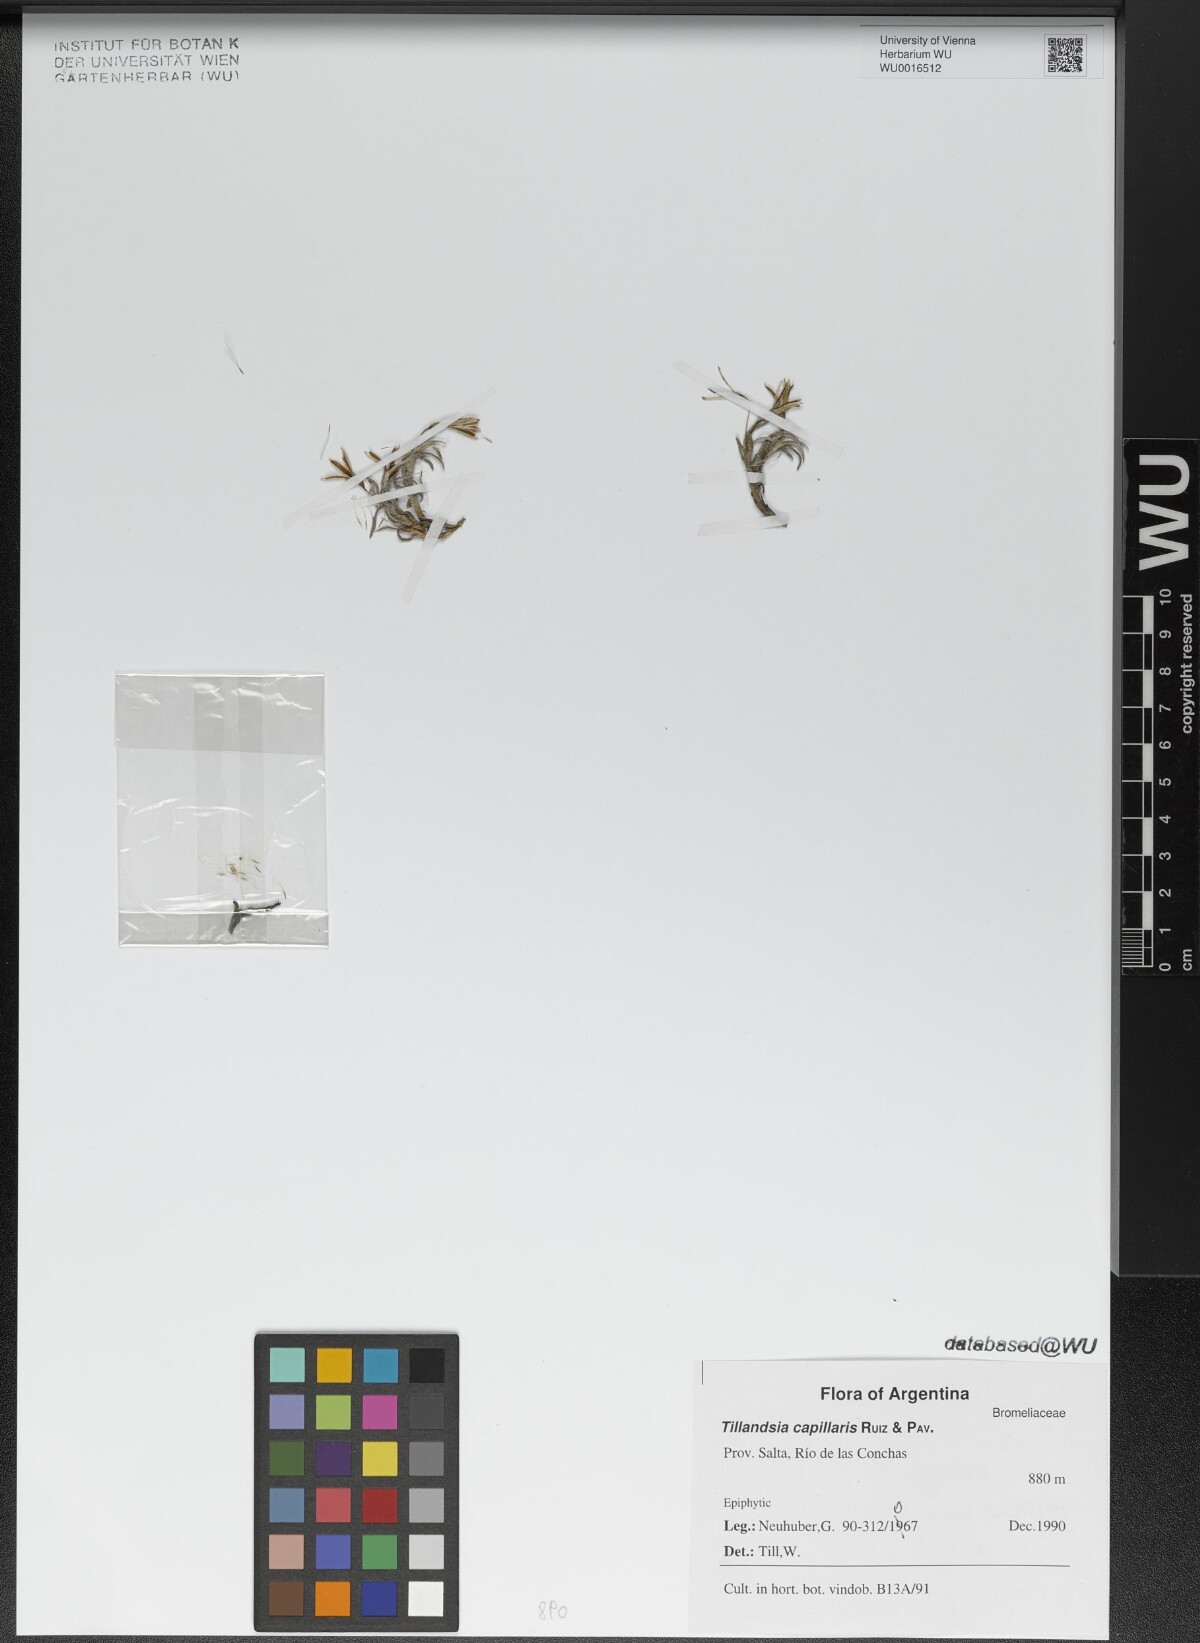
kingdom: Plantae
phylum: Tracheophyta
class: Liliopsida
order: Poales
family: Bromeliaceae
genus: Tillandsia
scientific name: Tillandsia capillaris
